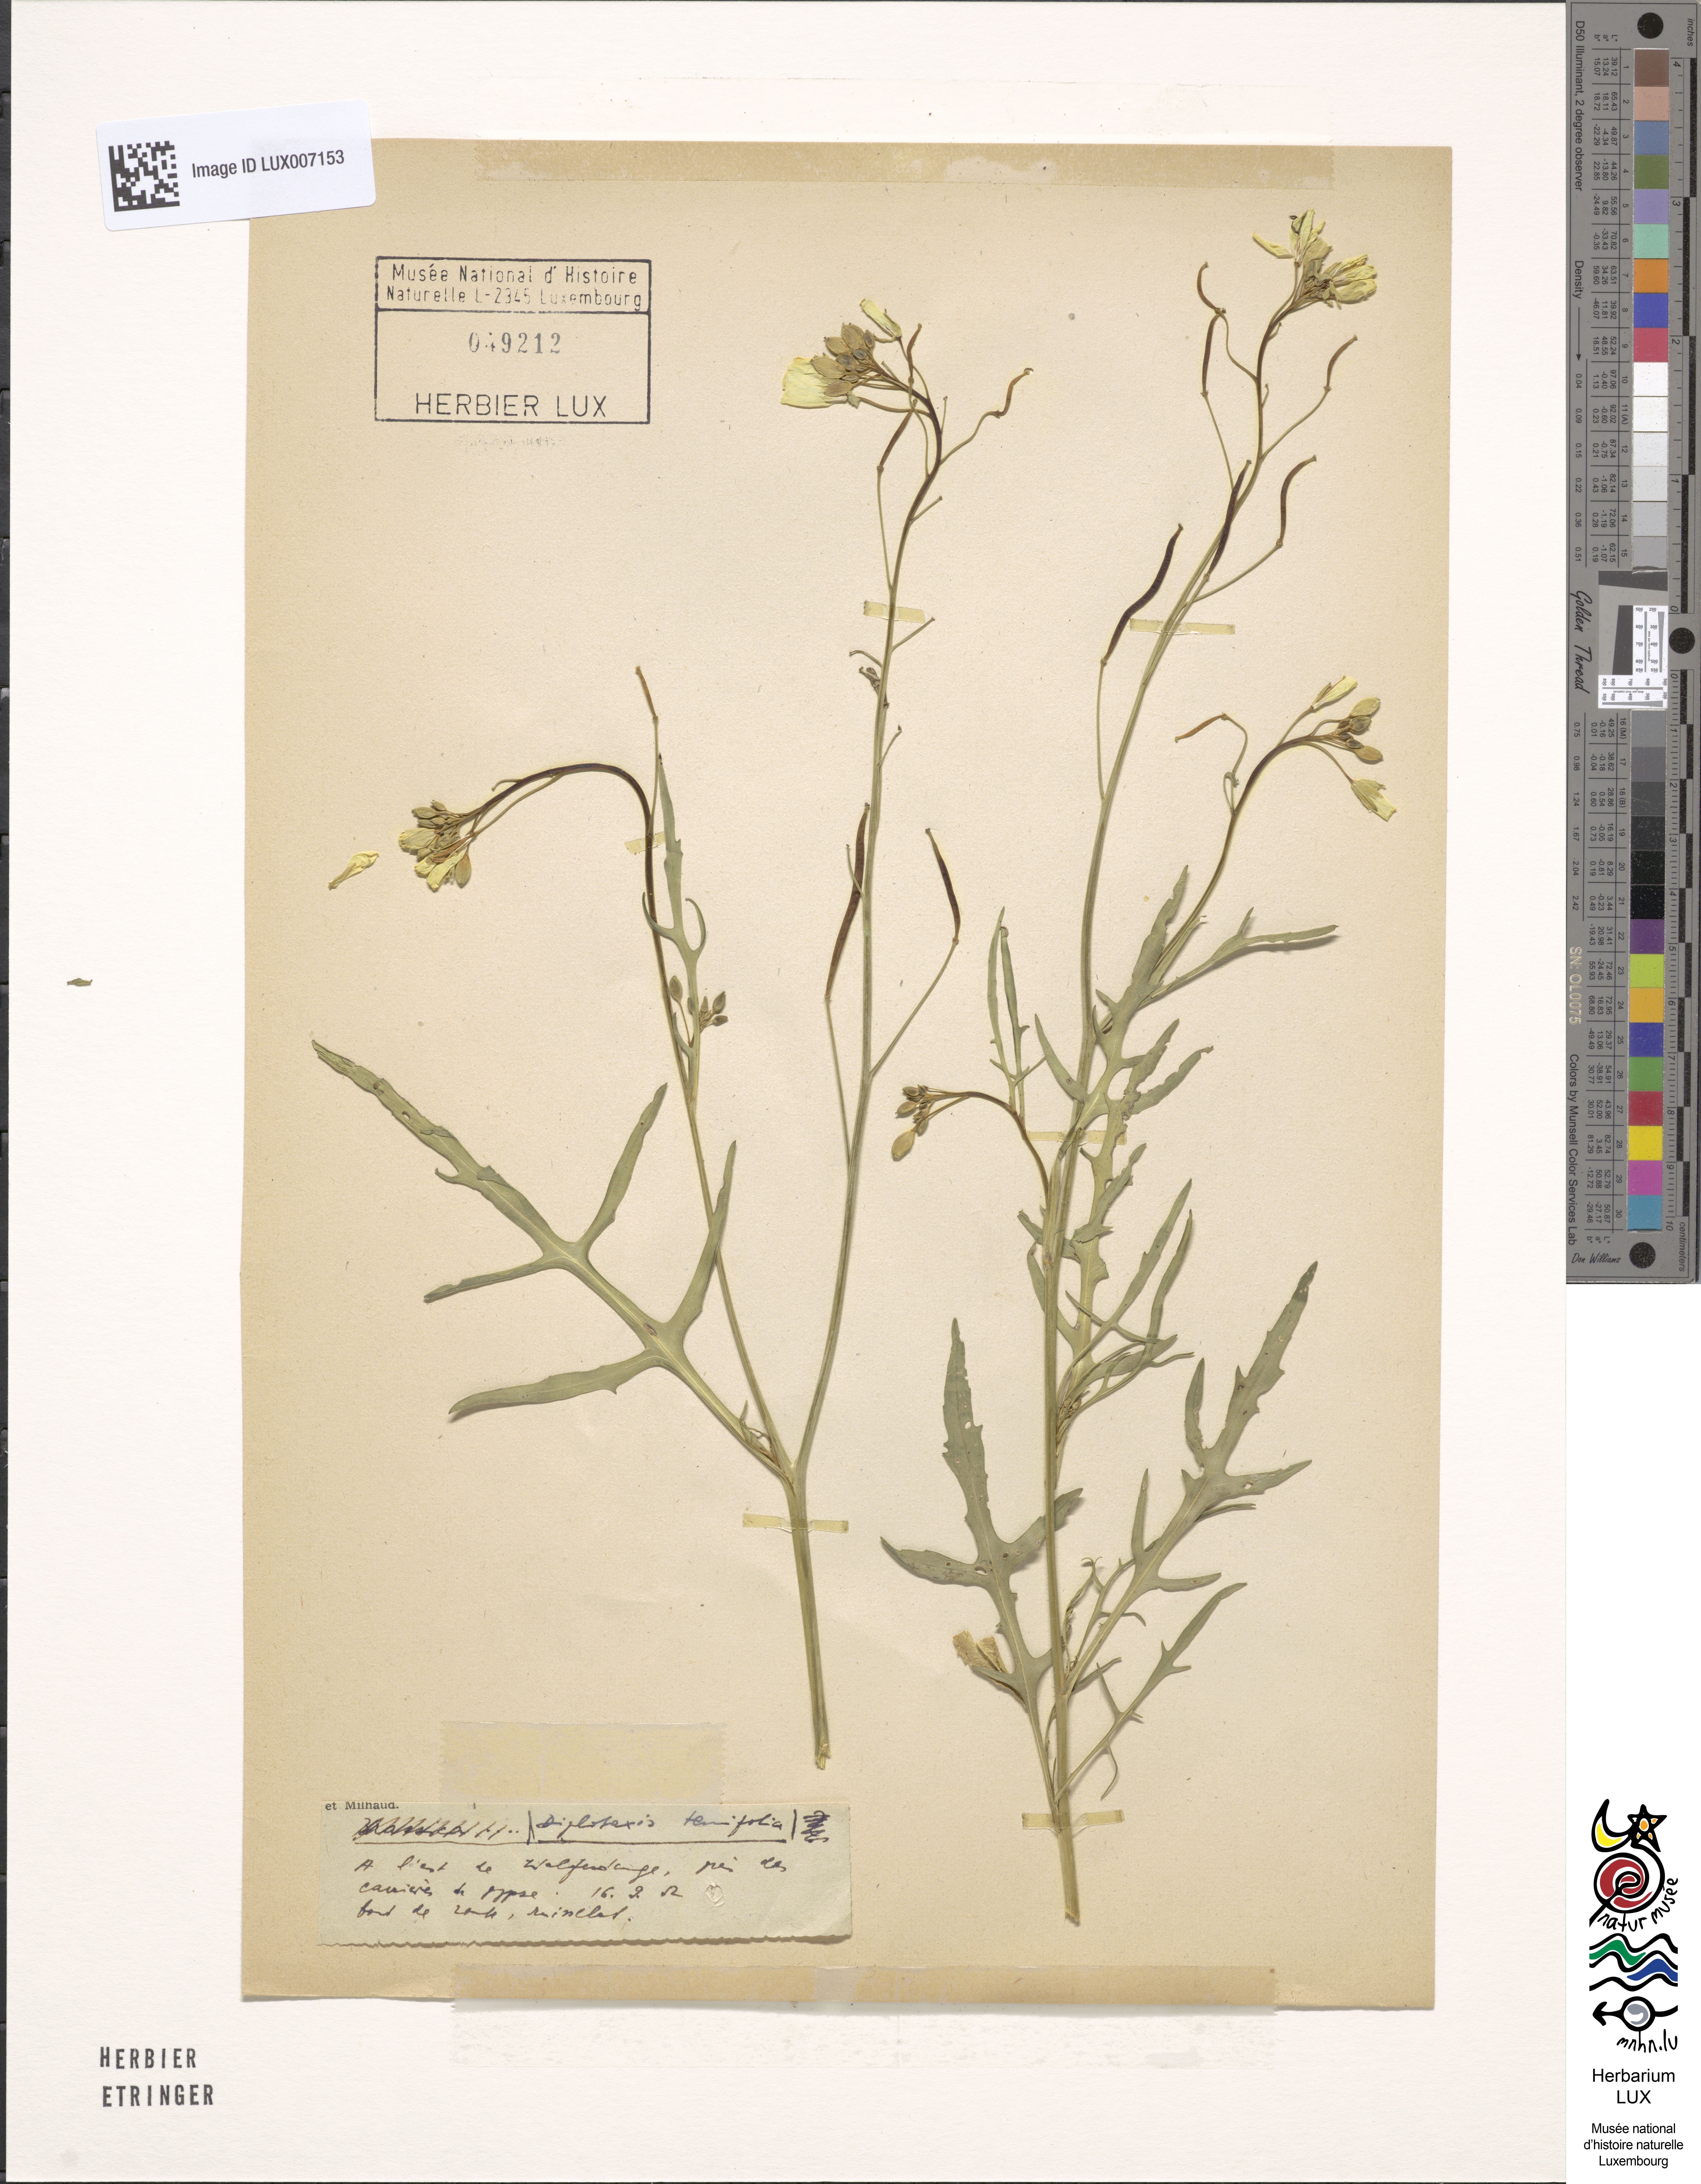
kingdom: Plantae
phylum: Tracheophyta
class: Magnoliopsida
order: Brassicales
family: Brassicaceae
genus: Diplotaxis
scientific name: Diplotaxis tenuifolia
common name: Perennial wall-rocket
